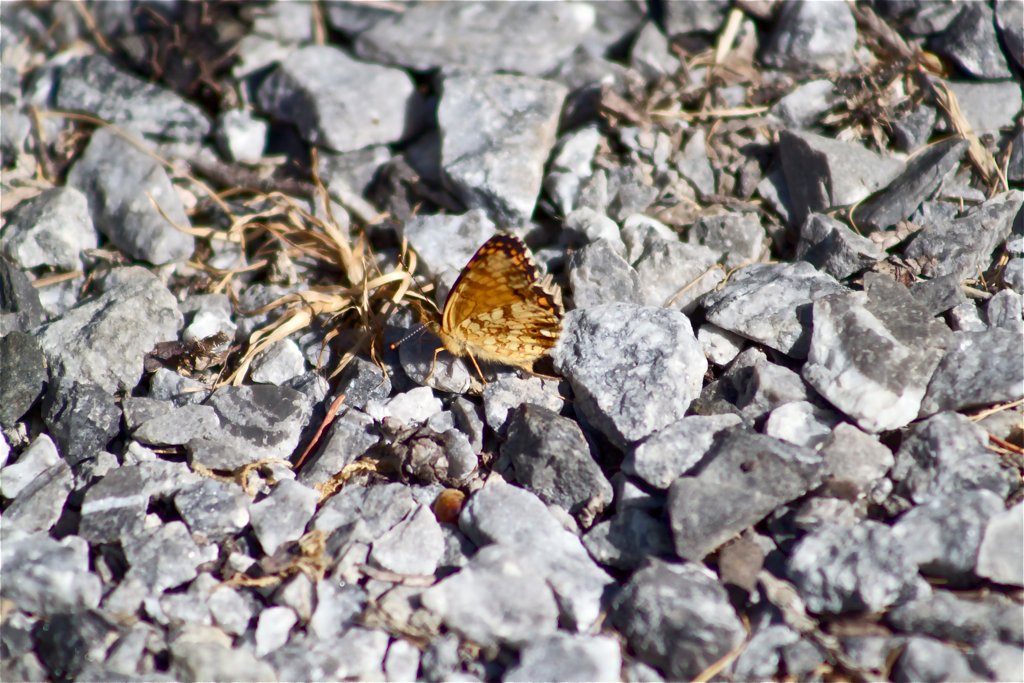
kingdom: Animalia
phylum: Arthropoda
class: Insecta
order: Lepidoptera
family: Nymphalidae
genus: Eresia
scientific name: Eresia aveyrona
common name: Mylitta Crescent
